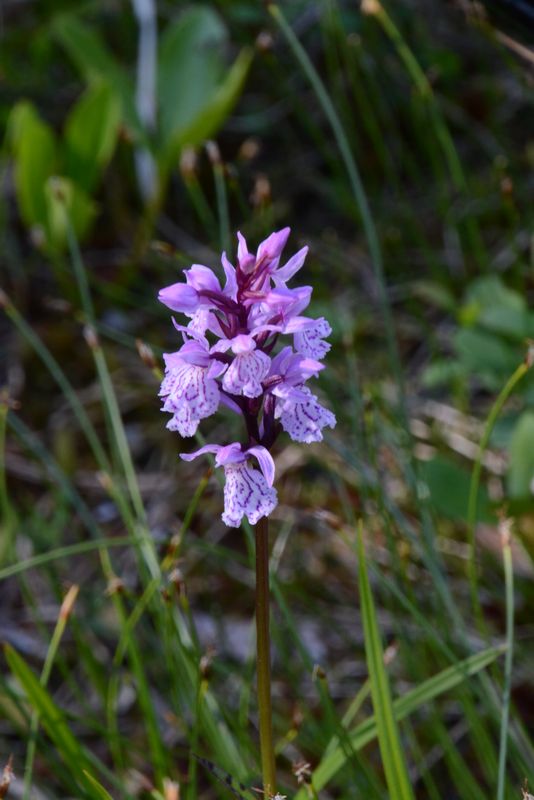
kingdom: Plantae
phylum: Tracheophyta
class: Liliopsida
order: Asparagales
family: Orchidaceae
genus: Dactylorhiza
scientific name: Dactylorhiza maculata
